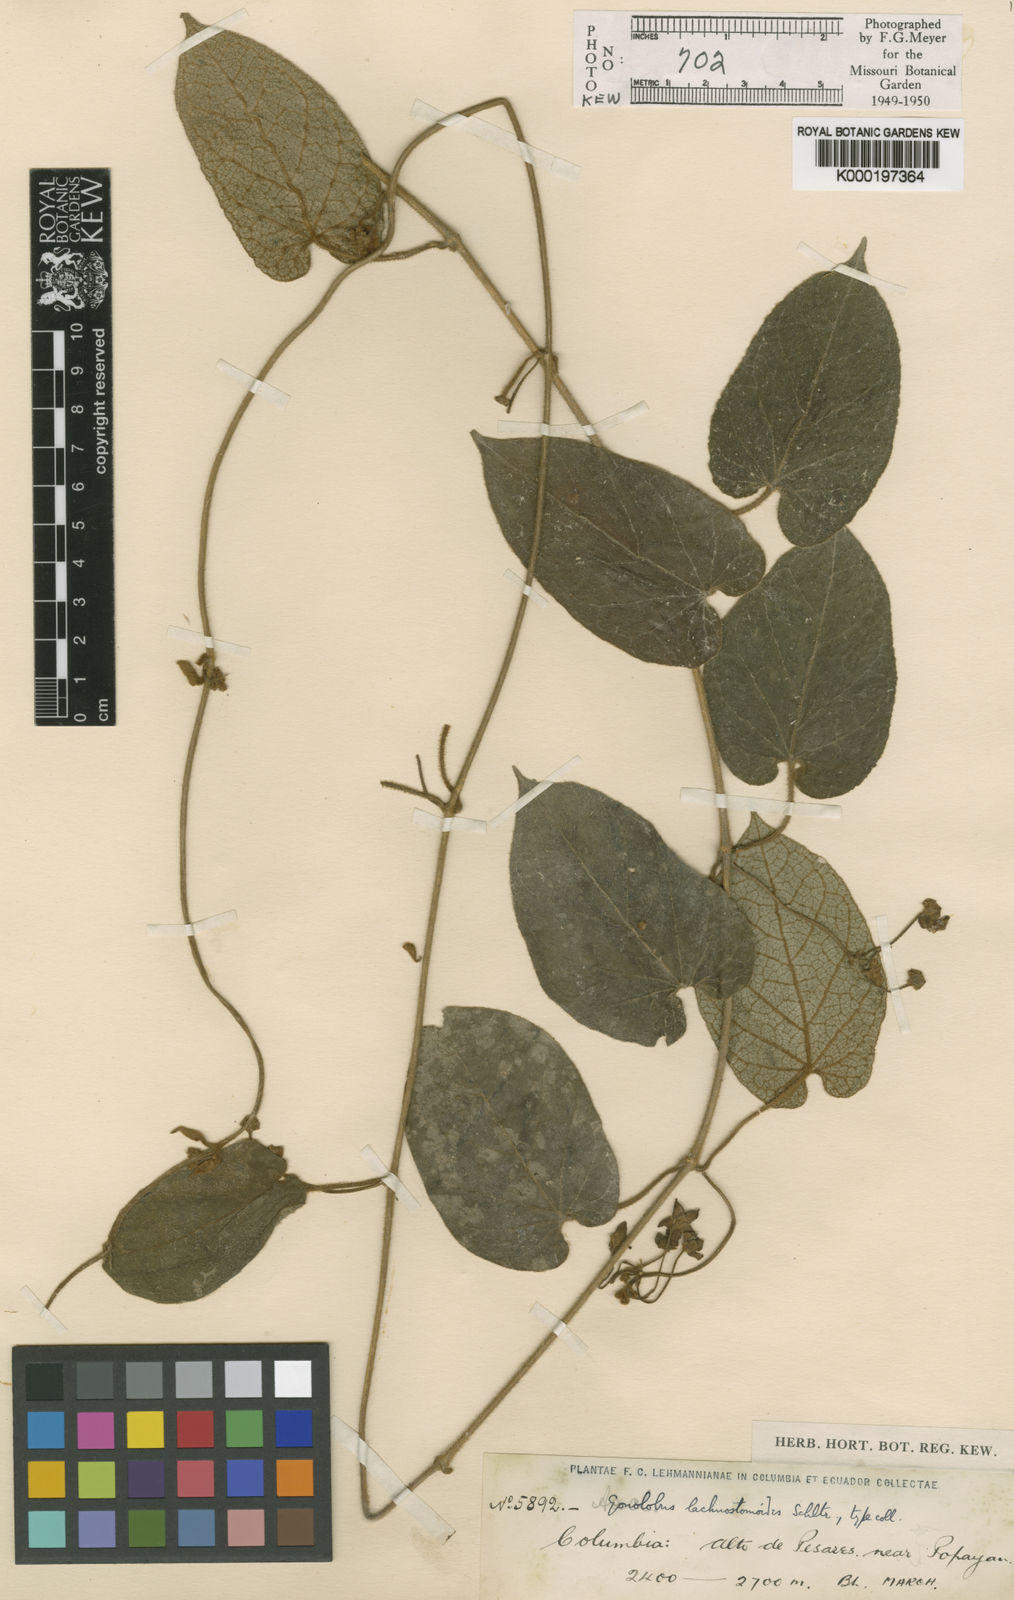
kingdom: Plantae
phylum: Tracheophyta
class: Magnoliopsida
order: Gentianales
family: Apocynaceae
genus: Gonolobus
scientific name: Gonolobus lachnostomoides
